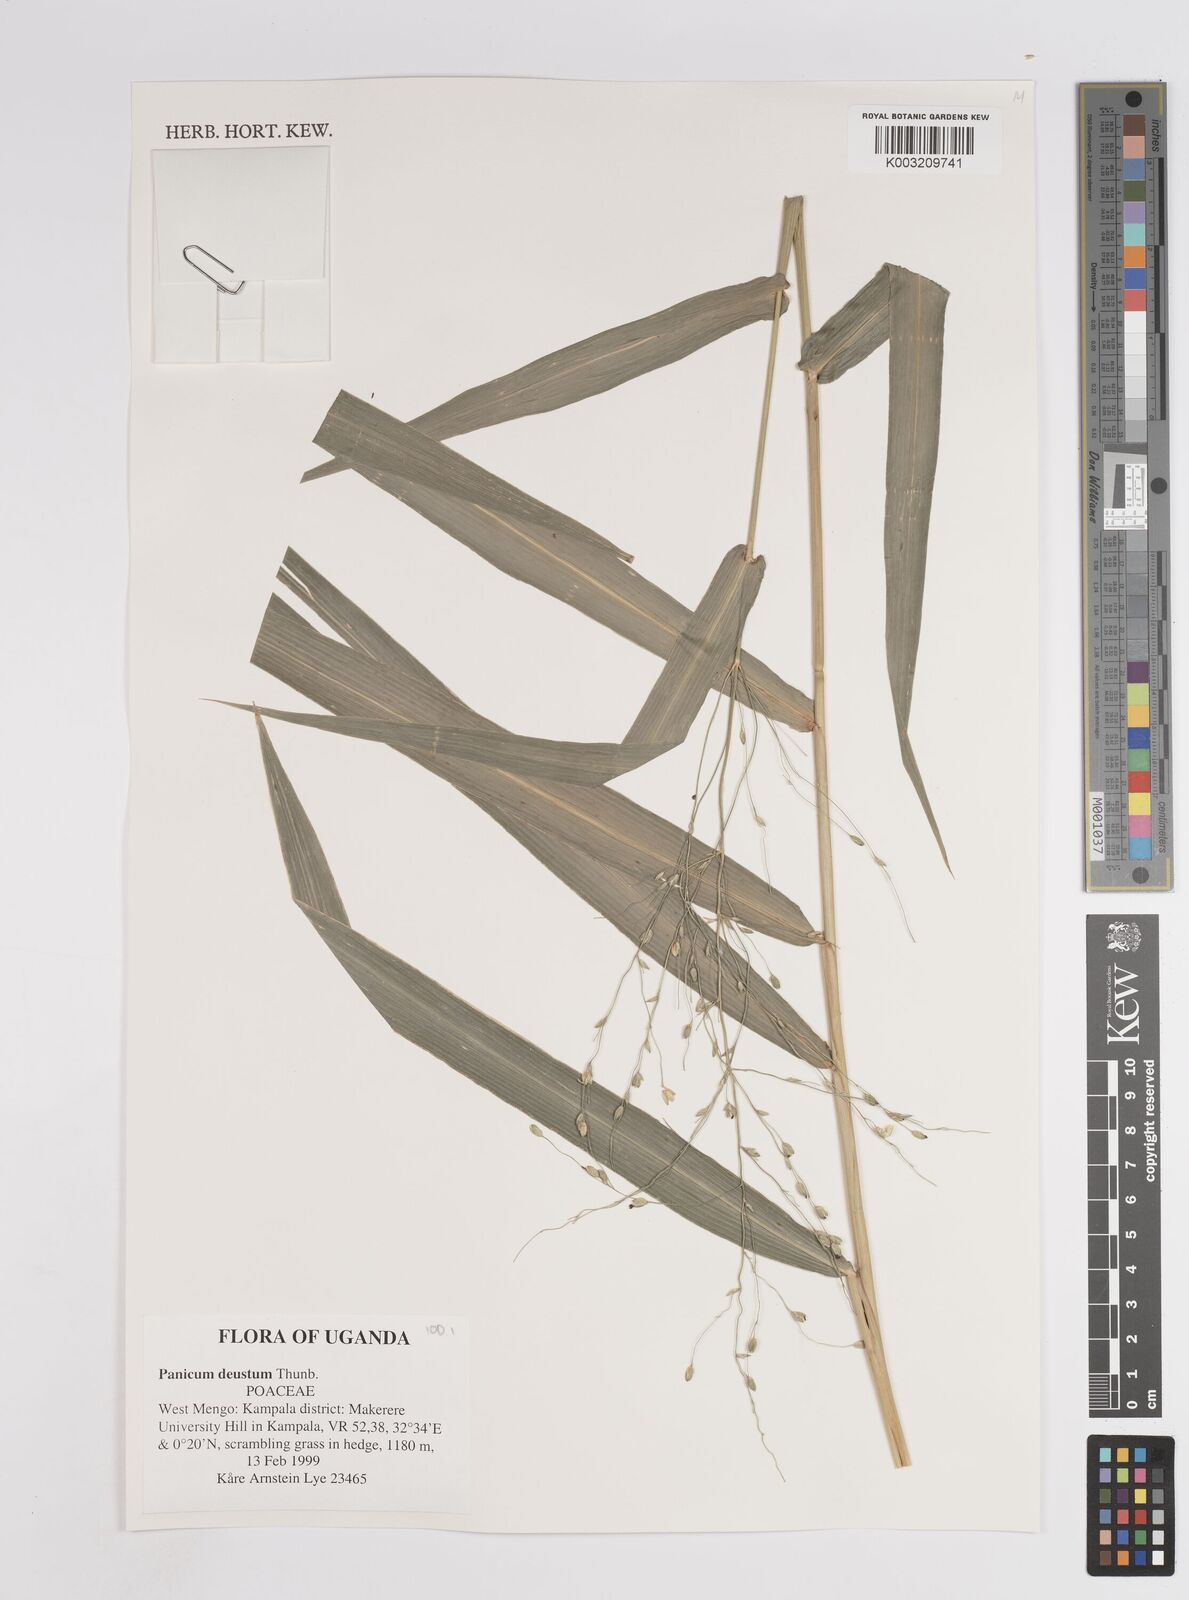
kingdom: Plantae
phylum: Tracheophyta
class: Liliopsida
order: Poales
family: Poaceae
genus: Panicum
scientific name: Panicum
